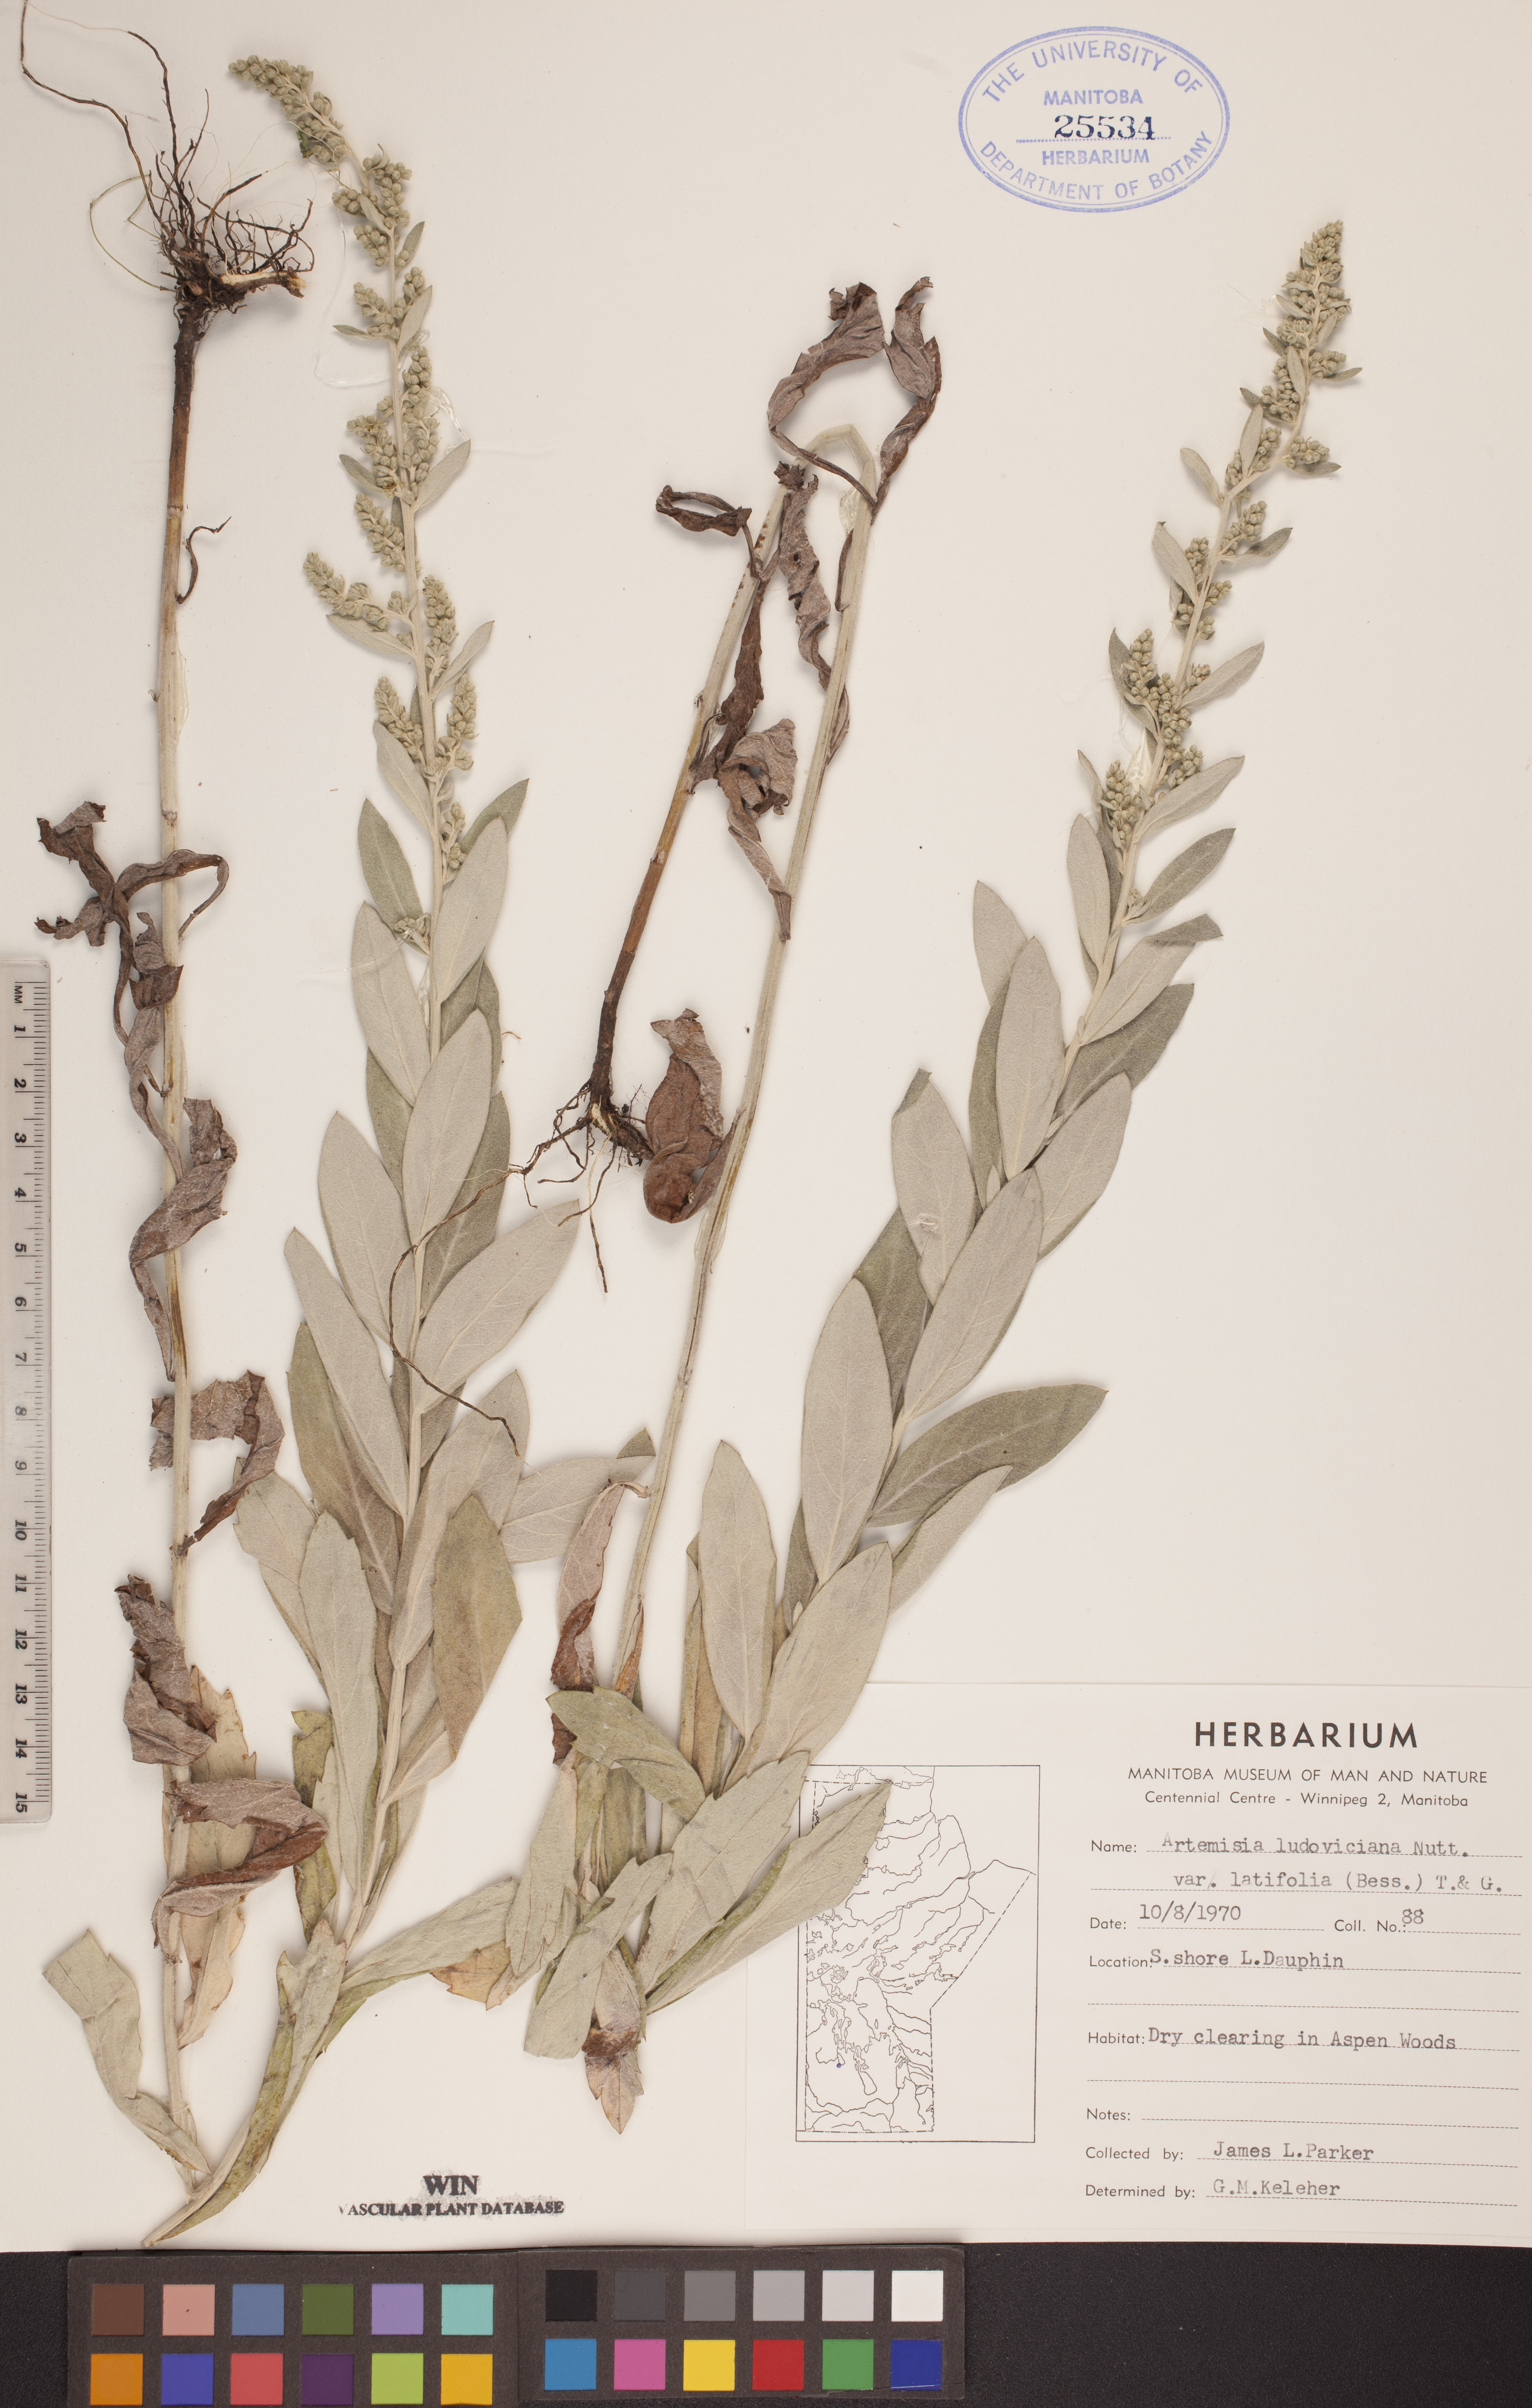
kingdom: Plantae
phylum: Tracheophyta
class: Magnoliopsida
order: Asterales
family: Asteraceae
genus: Artemisia
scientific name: Artemisia ludoviciana
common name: Western mugwort
